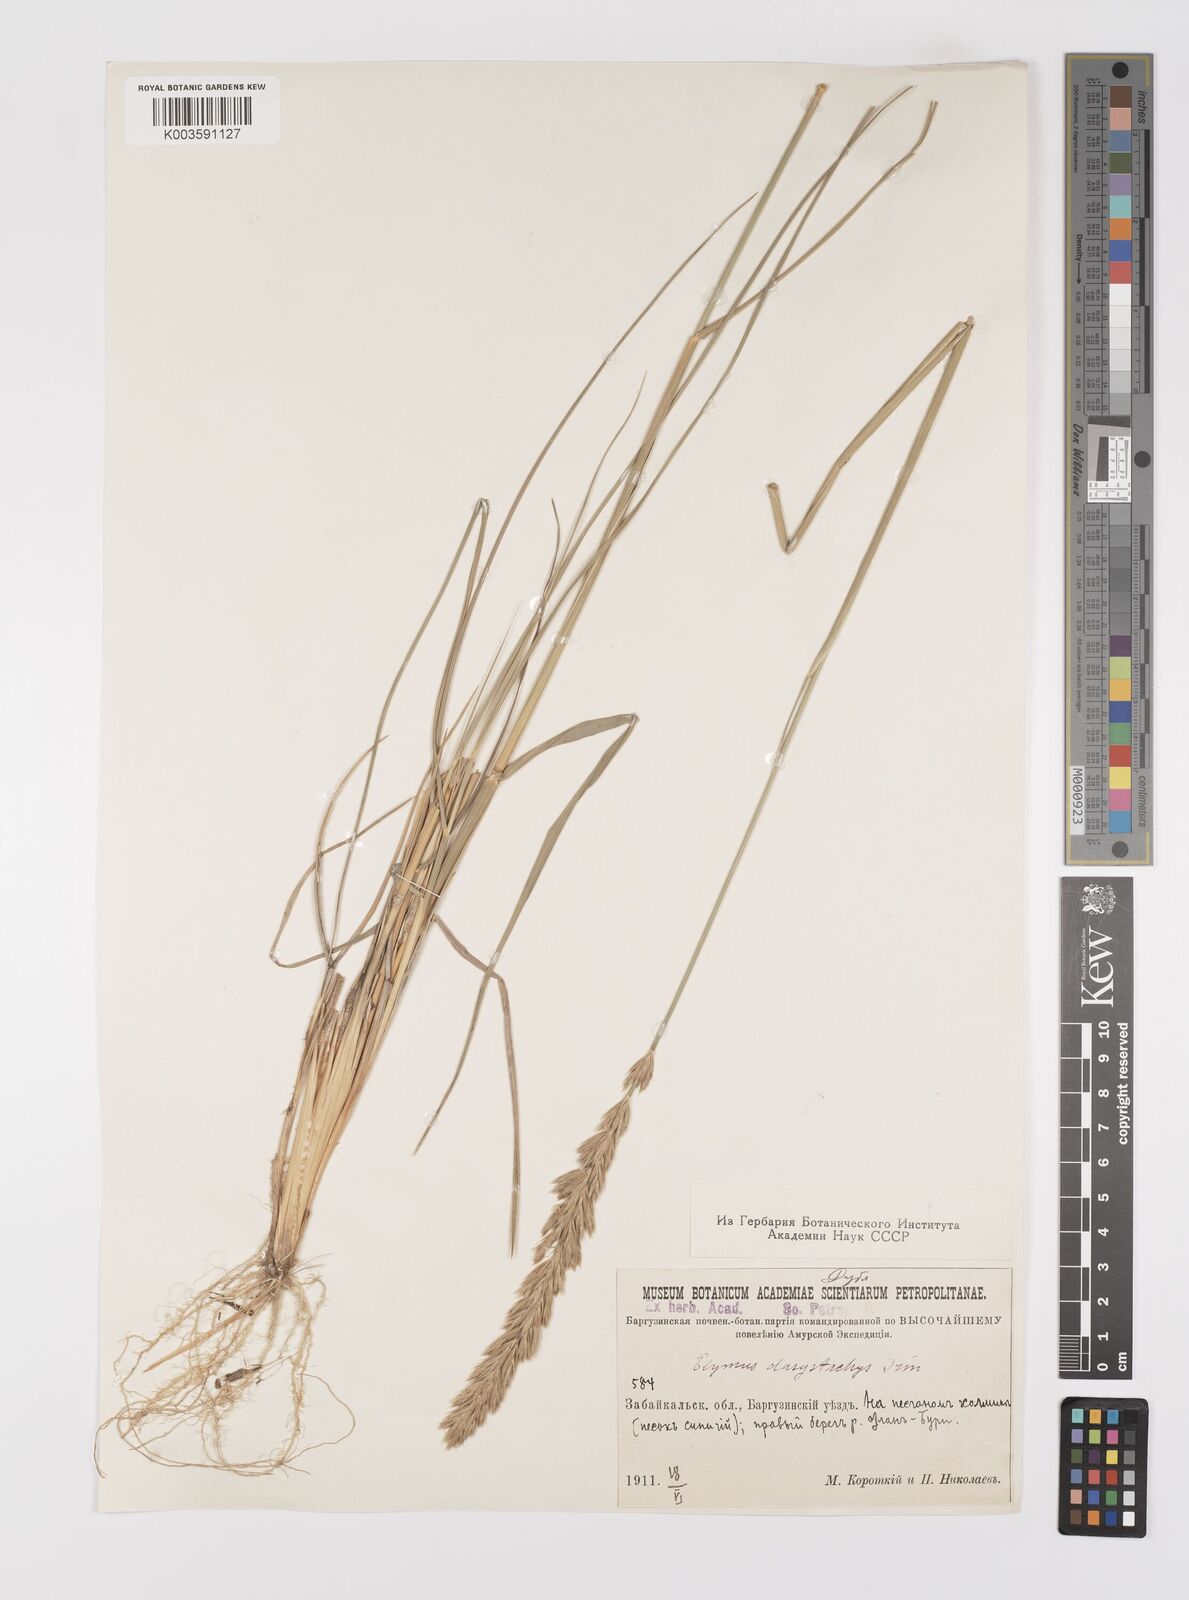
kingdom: Plantae
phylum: Tracheophyta
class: Liliopsida
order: Poales
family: Poaceae
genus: Leymus
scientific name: Leymus secalinus
